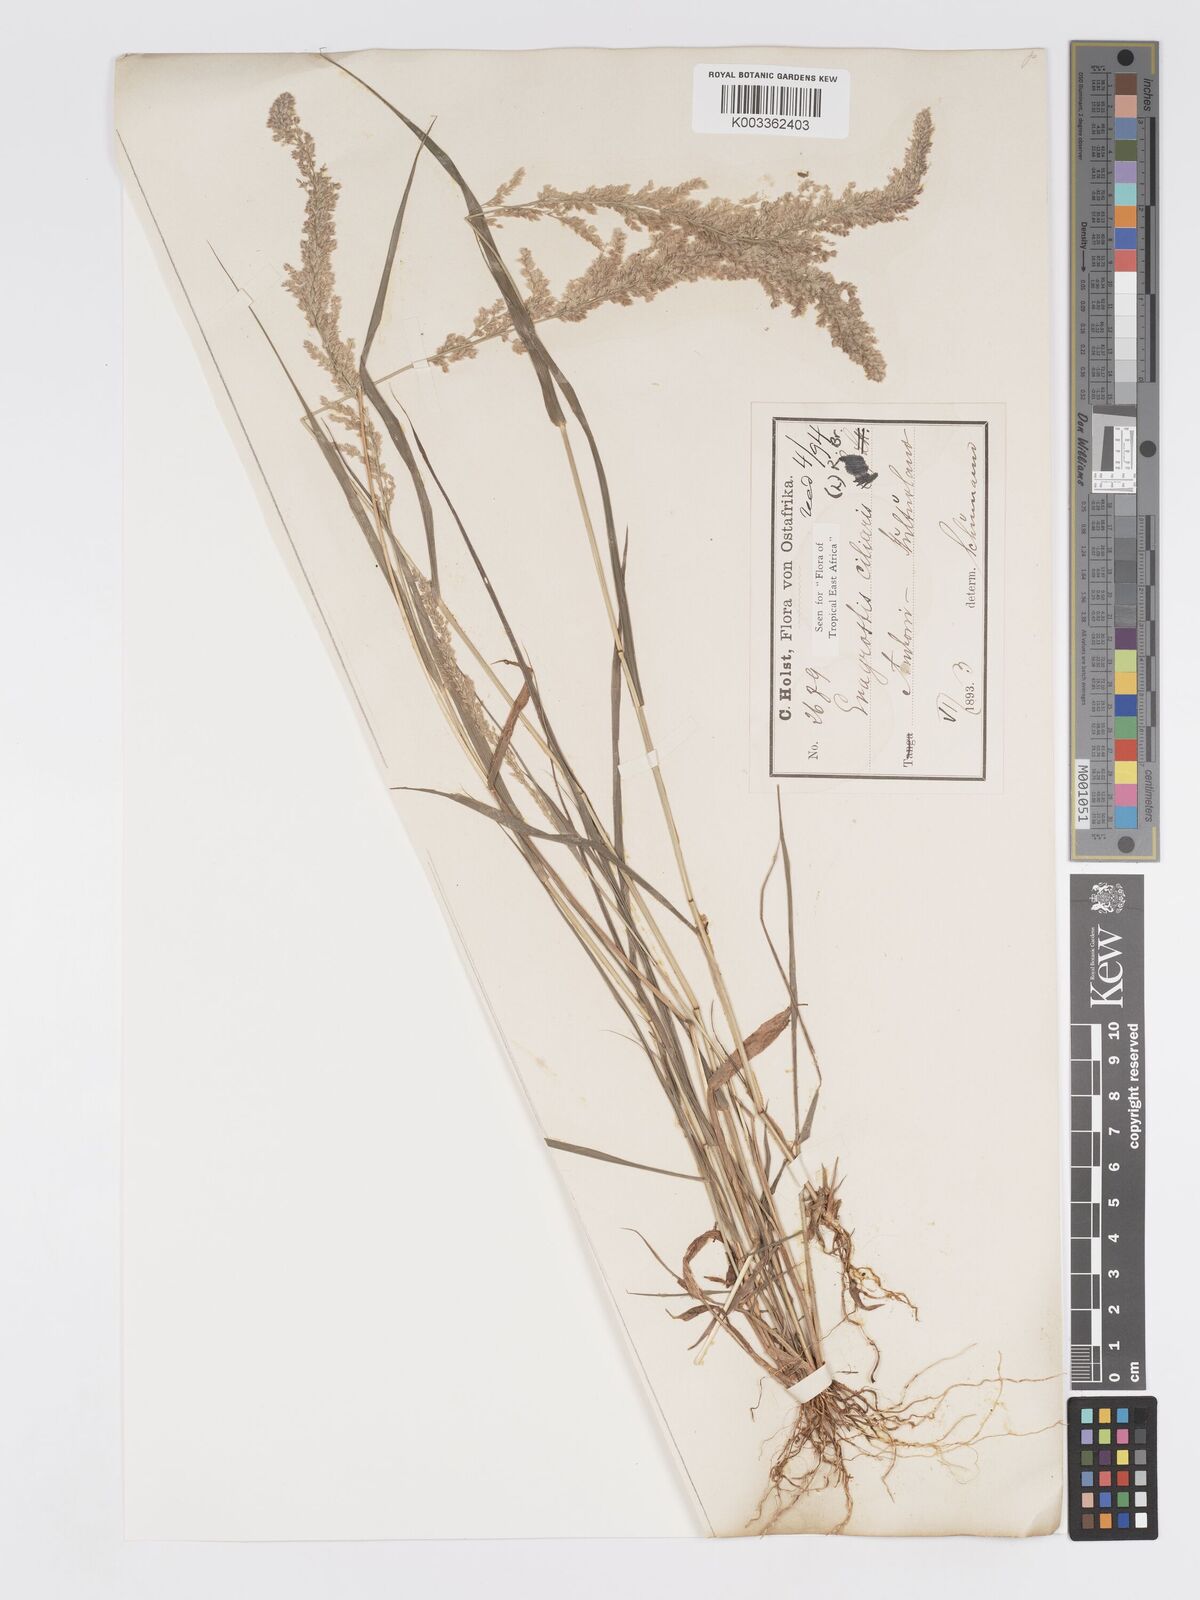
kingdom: Plantae
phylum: Tracheophyta
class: Liliopsida
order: Poales
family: Poaceae
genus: Eragrostis
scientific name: Eragrostis ciliaris
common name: Gophertail lovegrass
